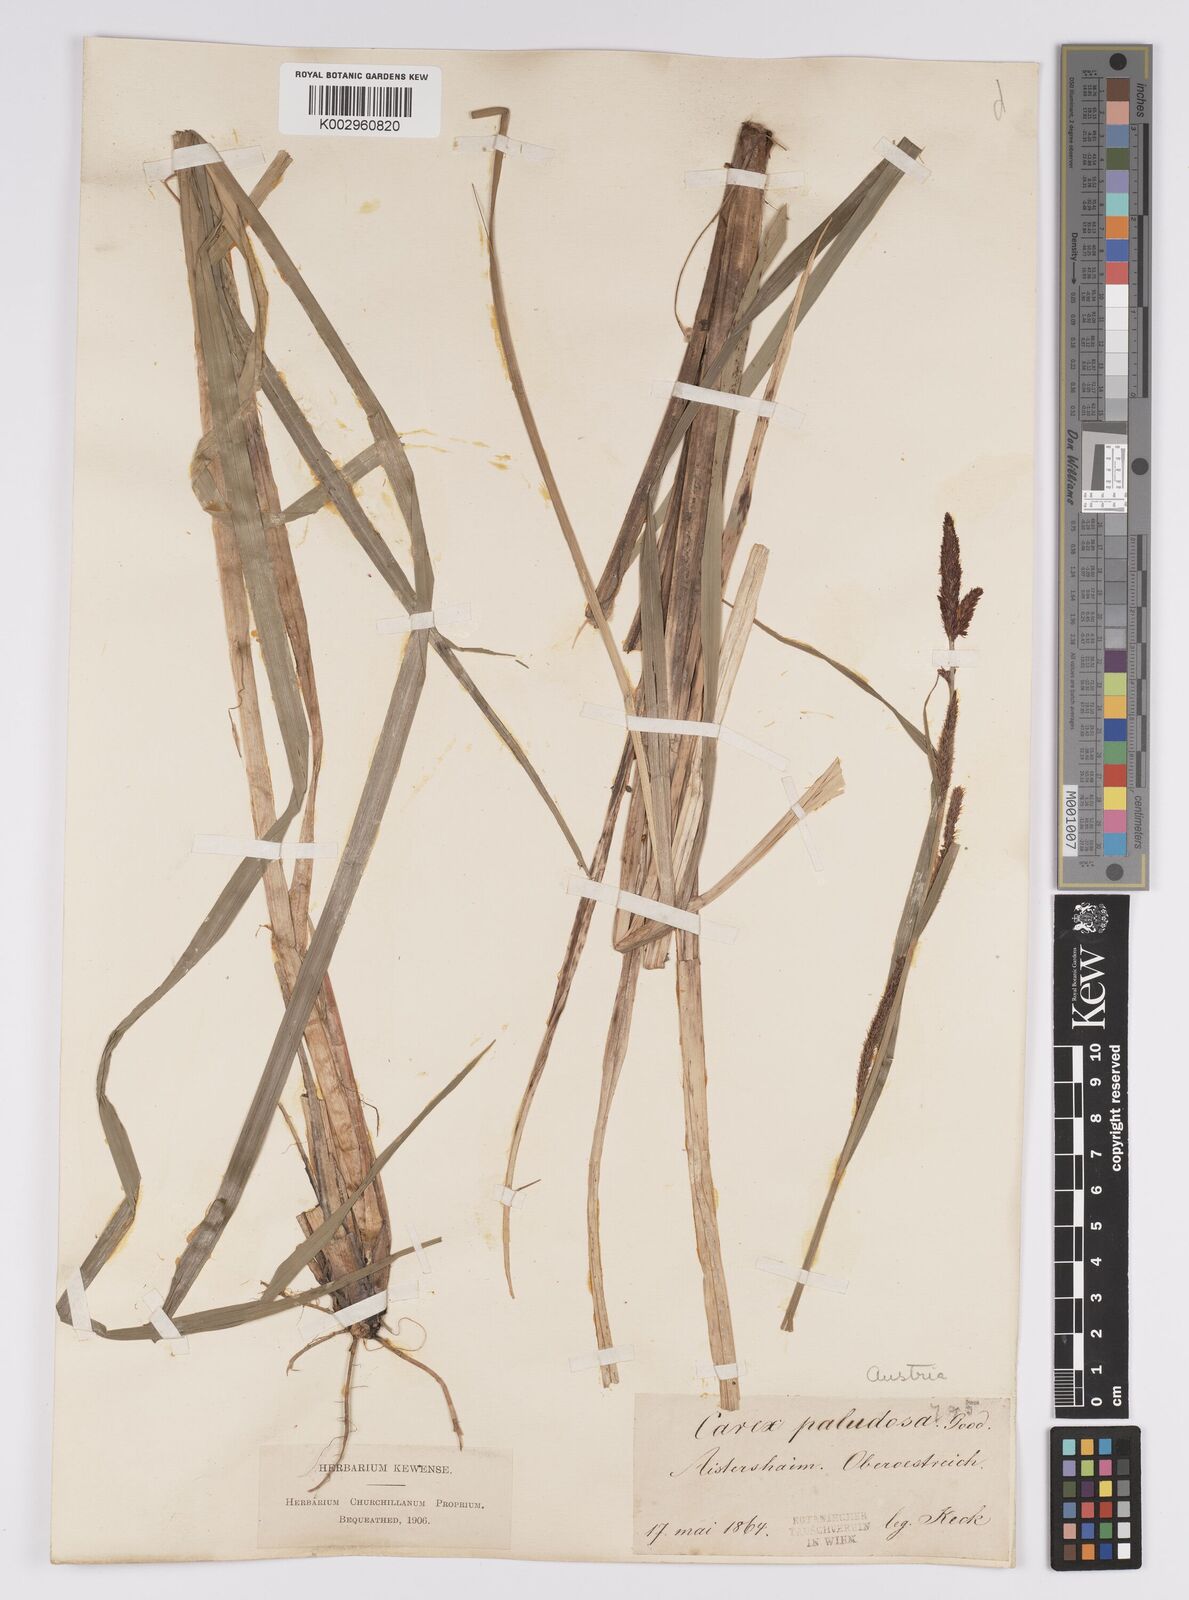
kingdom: Plantae
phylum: Tracheophyta
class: Liliopsida
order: Poales
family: Cyperaceae
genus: Carex
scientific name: Carex acutiformis
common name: Lesser pond-sedge
